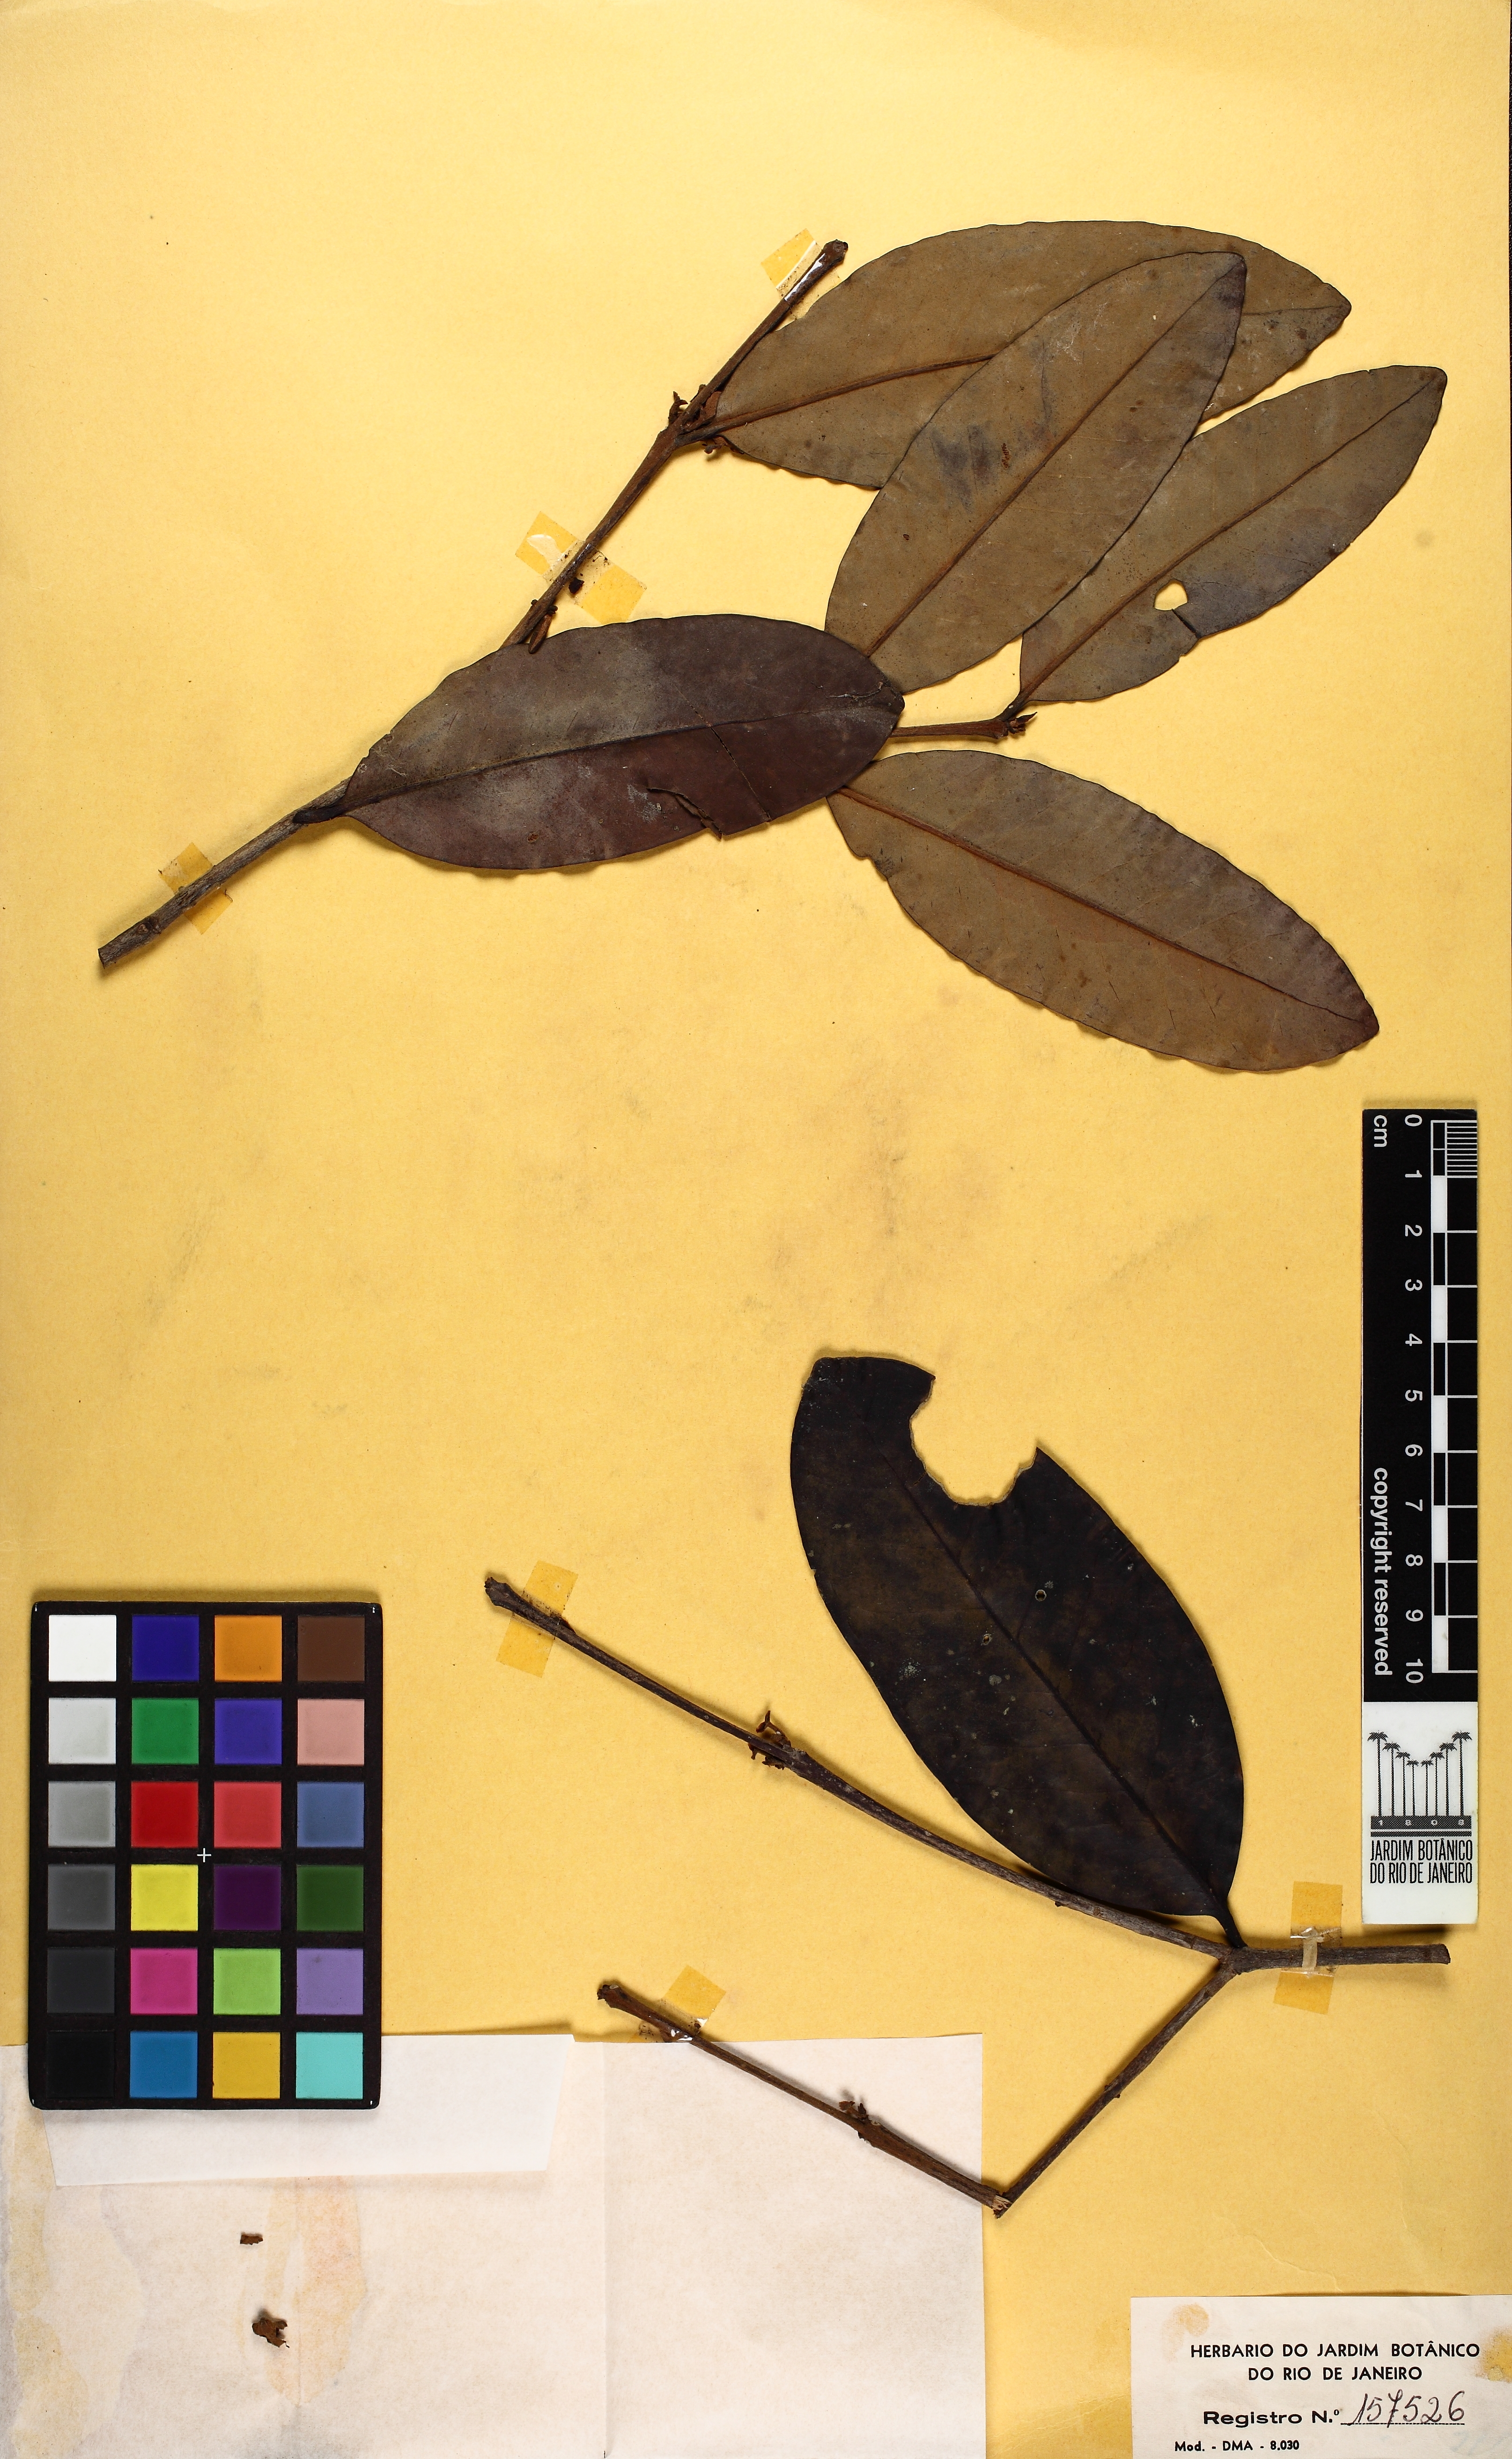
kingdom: Plantae
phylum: Tracheophyta
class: Magnoliopsida
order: Myrtales
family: Myrtaceae
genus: Eugenia
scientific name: Eugenia moritziana
